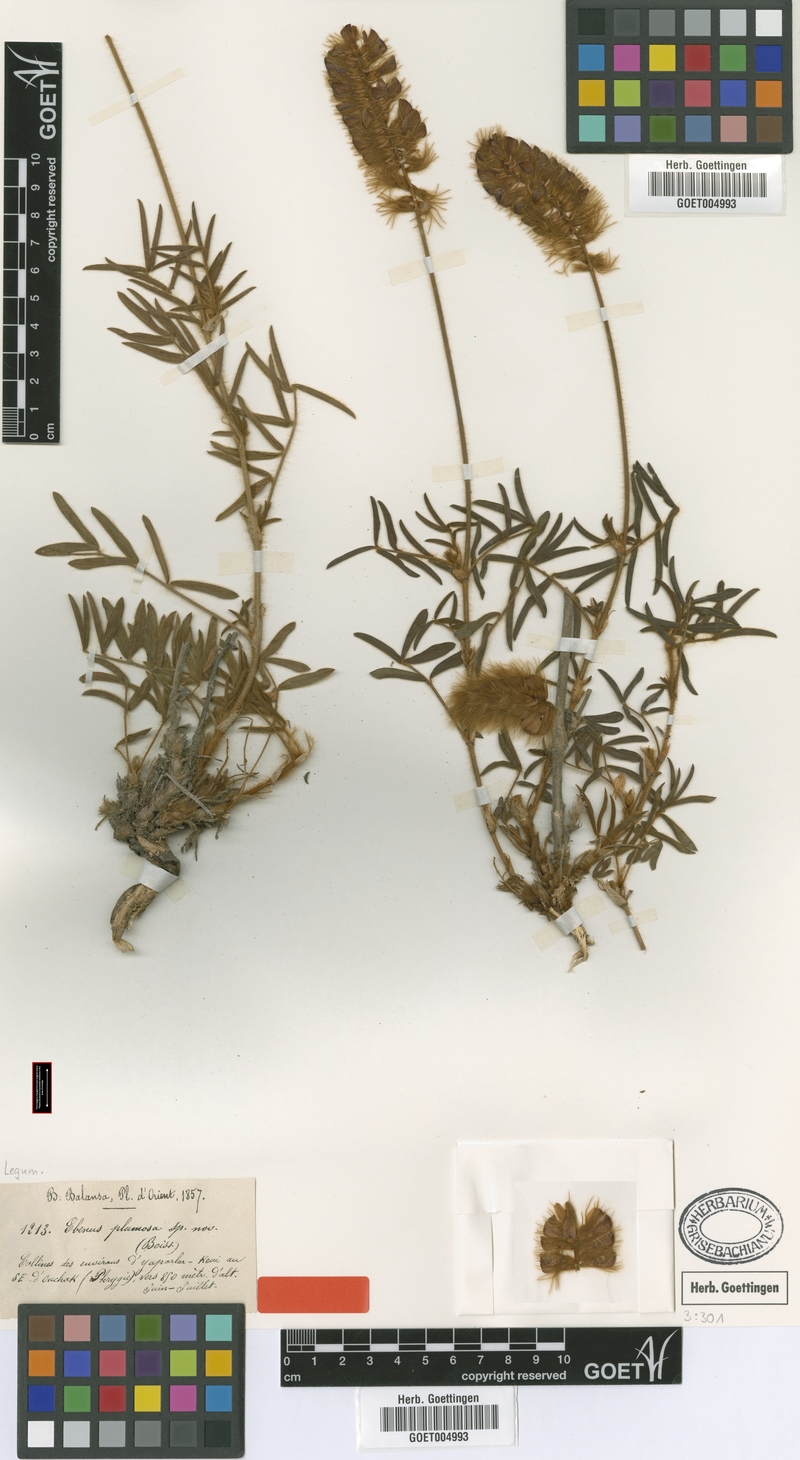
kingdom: Plantae
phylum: Tracheophyta
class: Magnoliopsida
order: Fabales
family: Fabaceae
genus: Ebenus
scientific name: Ebenus plumosa
